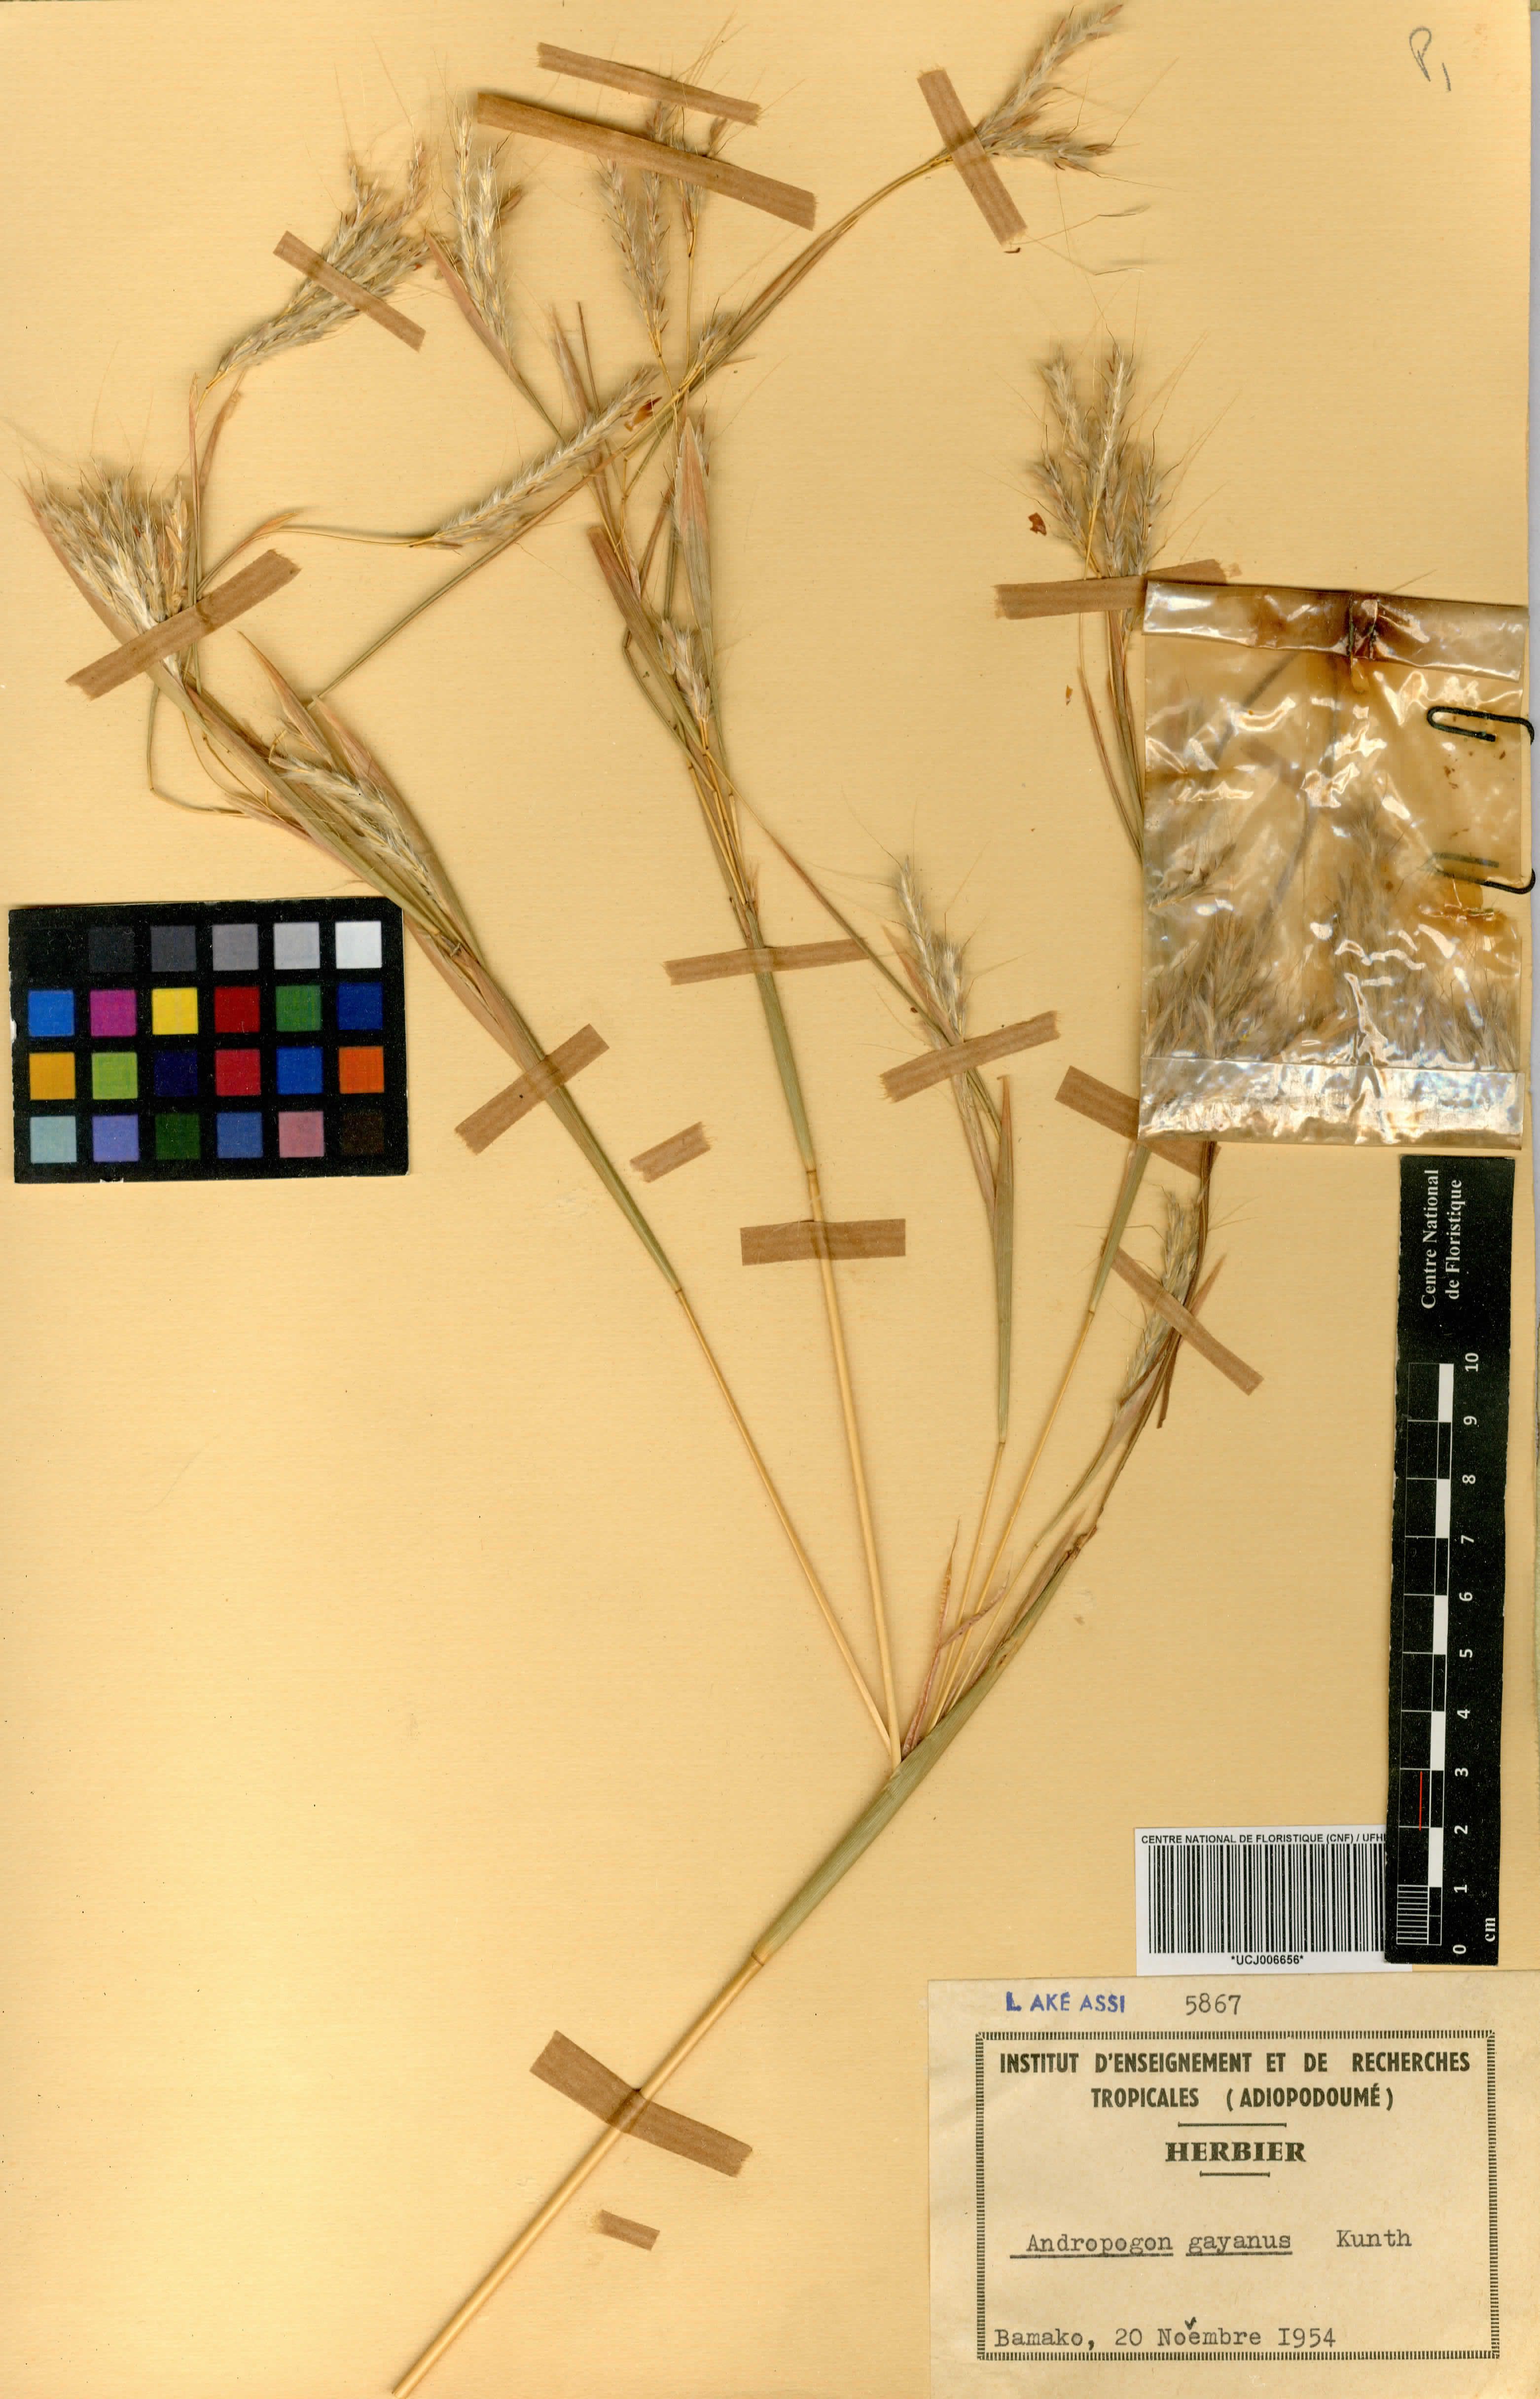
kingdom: Plantae
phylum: Tracheophyta
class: Liliopsida
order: Poales
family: Poaceae
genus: Andropogon
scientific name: Andropogon gayanus
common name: Tambuki grass
